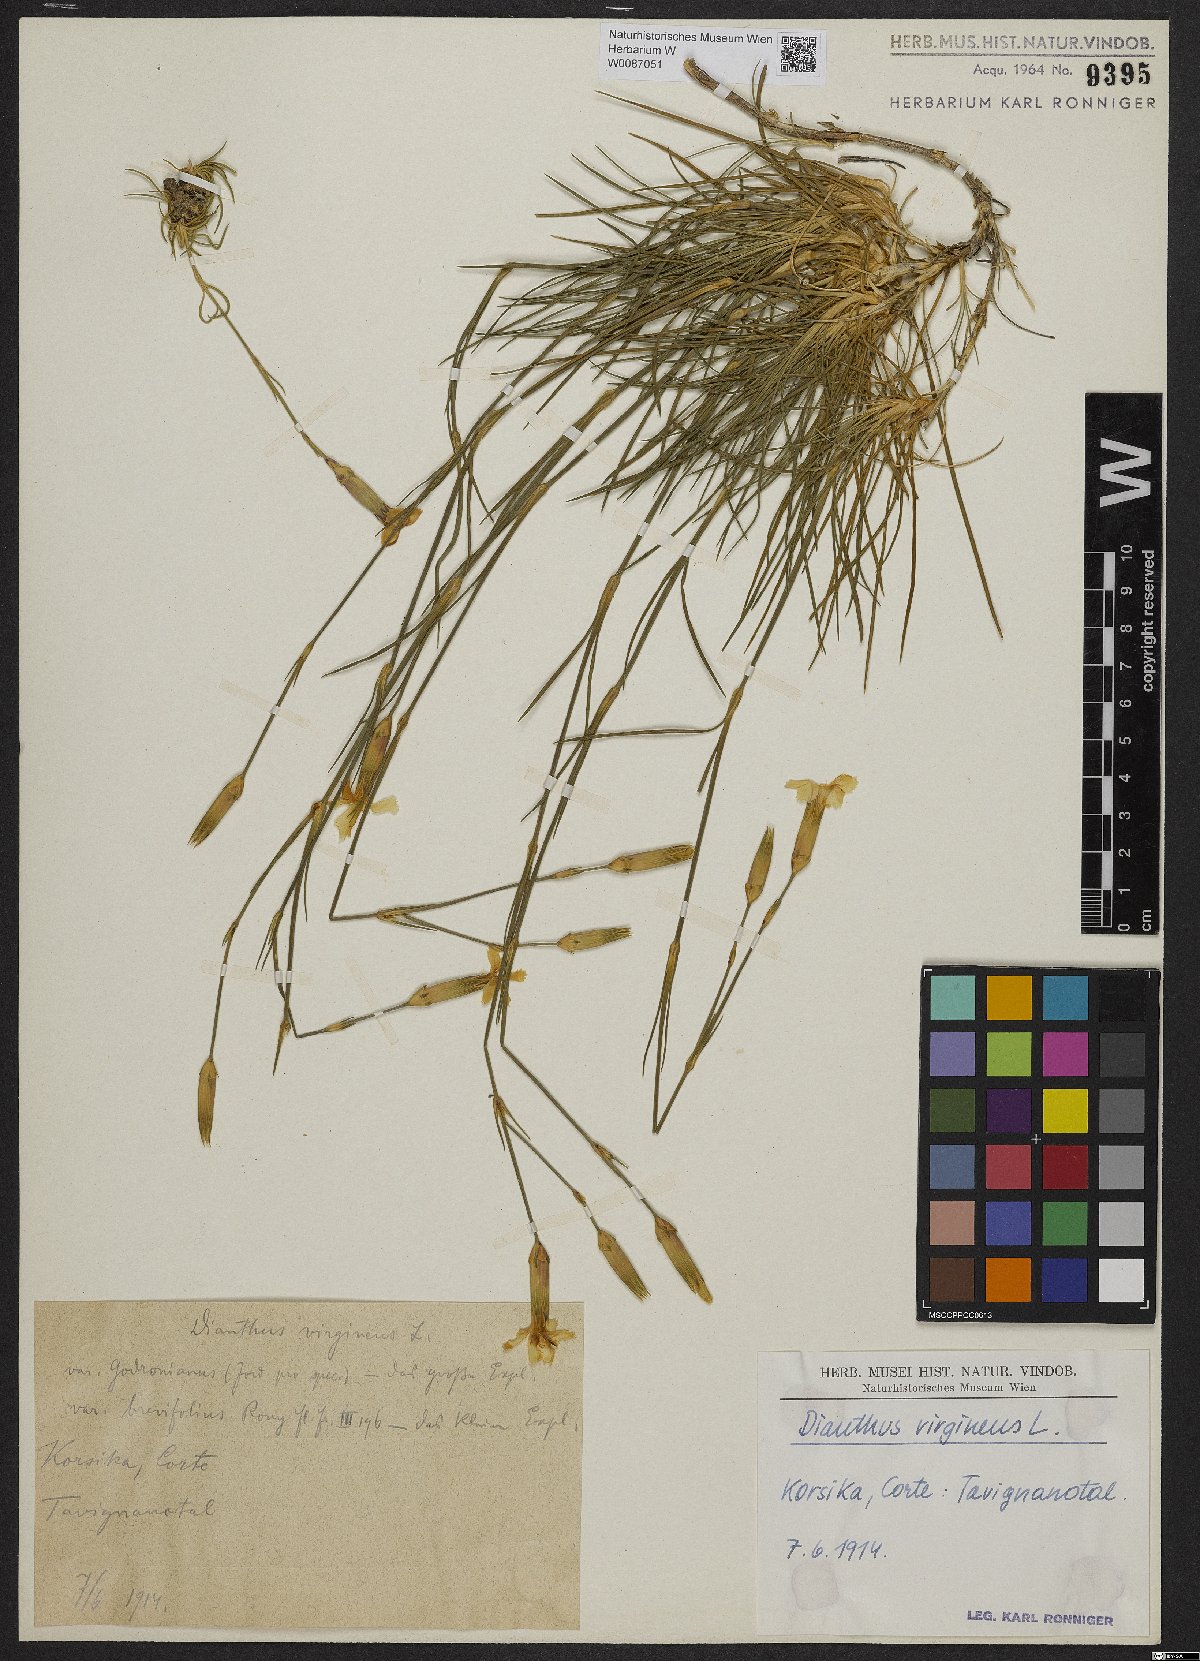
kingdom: Plantae
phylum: Tracheophyta
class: Magnoliopsida
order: Caryophyllales
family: Caryophyllaceae
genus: Dianthus
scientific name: Dianthus virgineus
